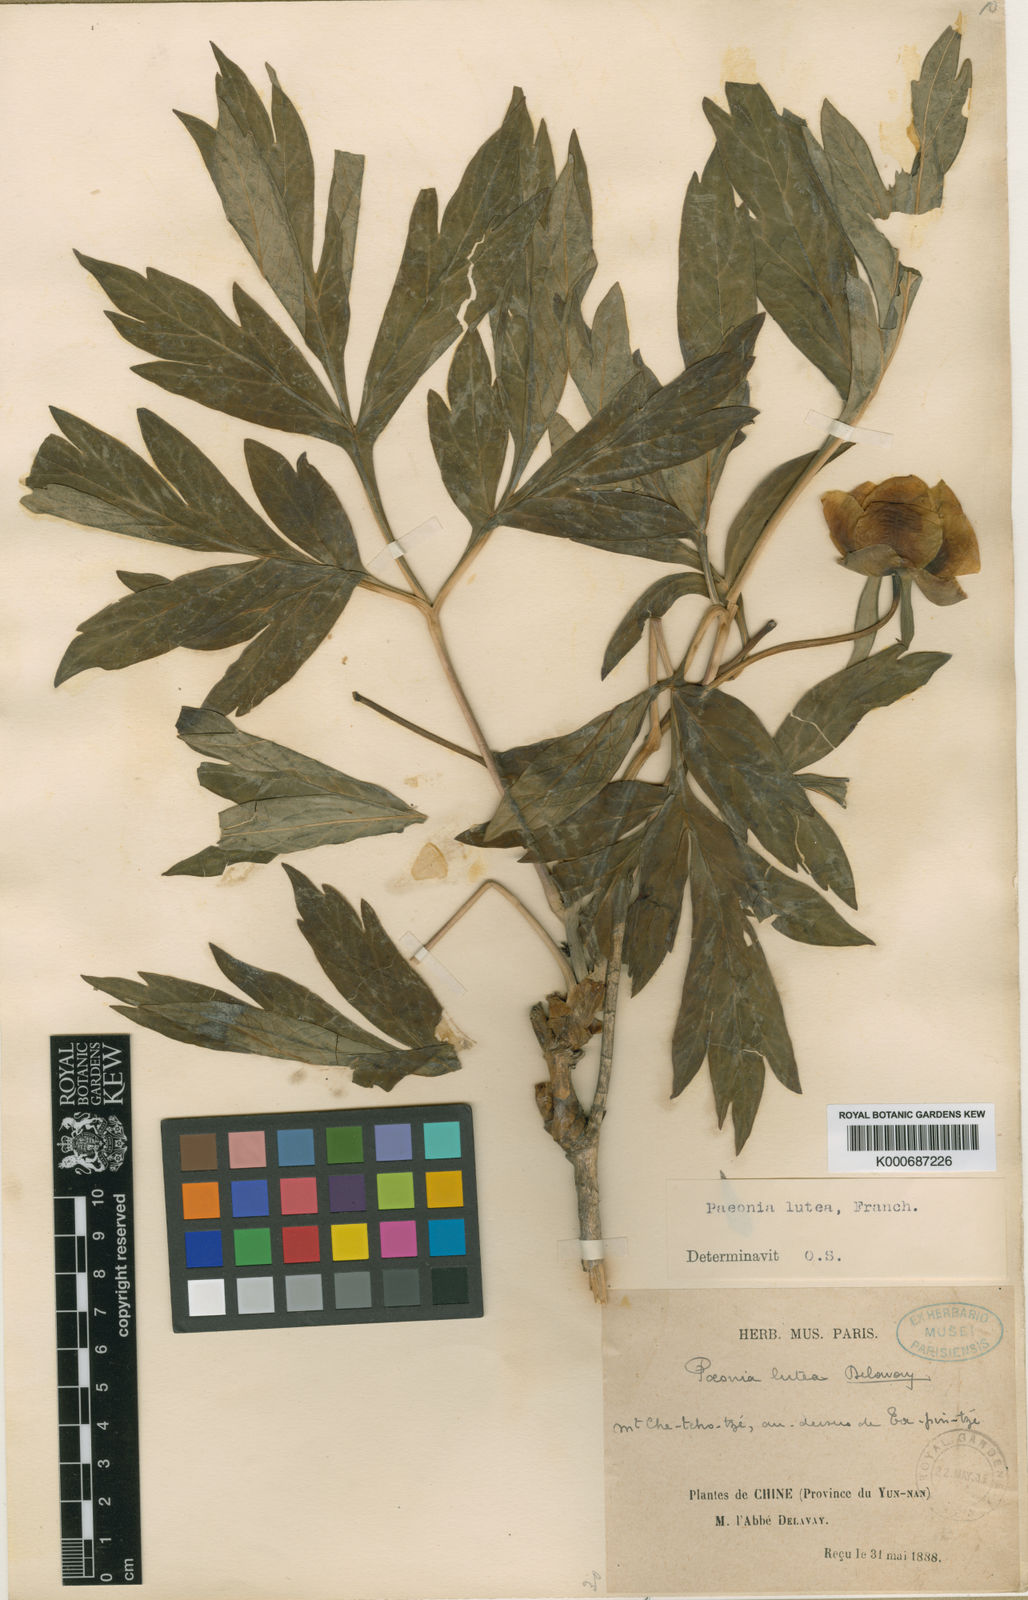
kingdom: Plantae
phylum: Tracheophyta
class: Magnoliopsida
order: Saxifragales
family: Paeoniaceae
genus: Paeonia
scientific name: Paeonia delavayi
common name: Dian mu dan
